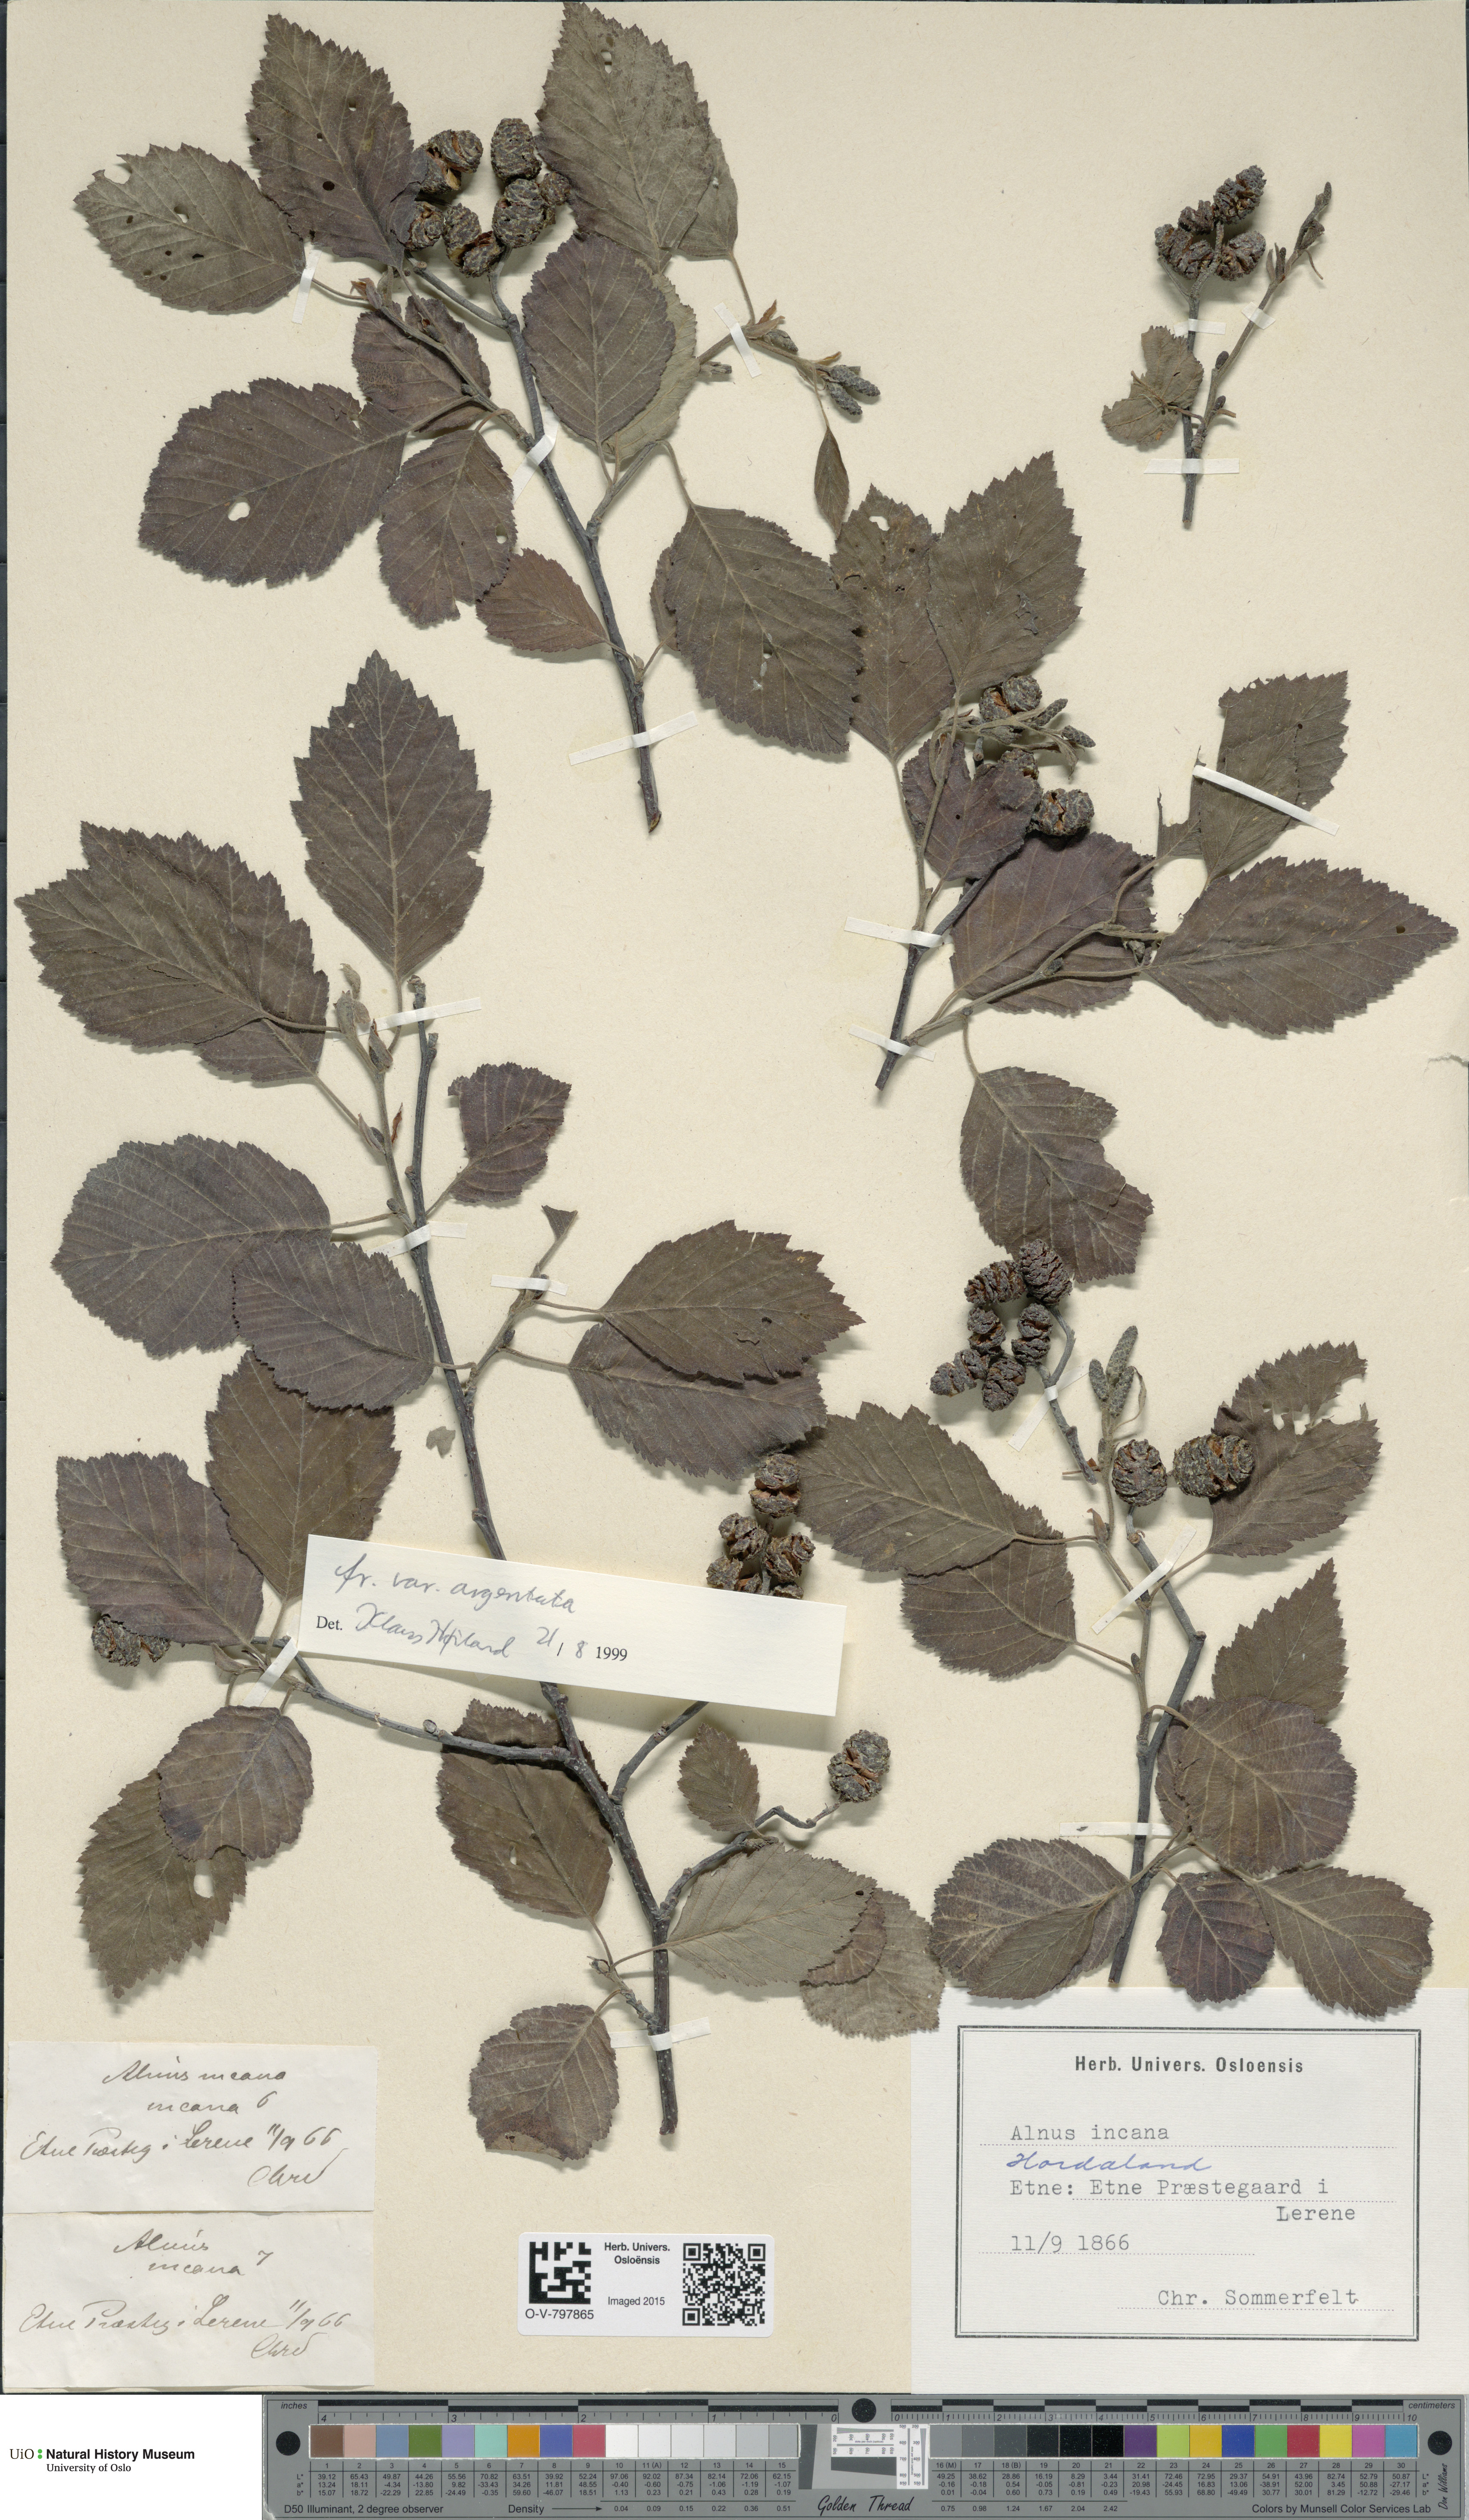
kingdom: Plantae
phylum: Tracheophyta
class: Magnoliopsida
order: Fagales
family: Betulaceae
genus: Alnus
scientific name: Alnus incana
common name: Grey alder
